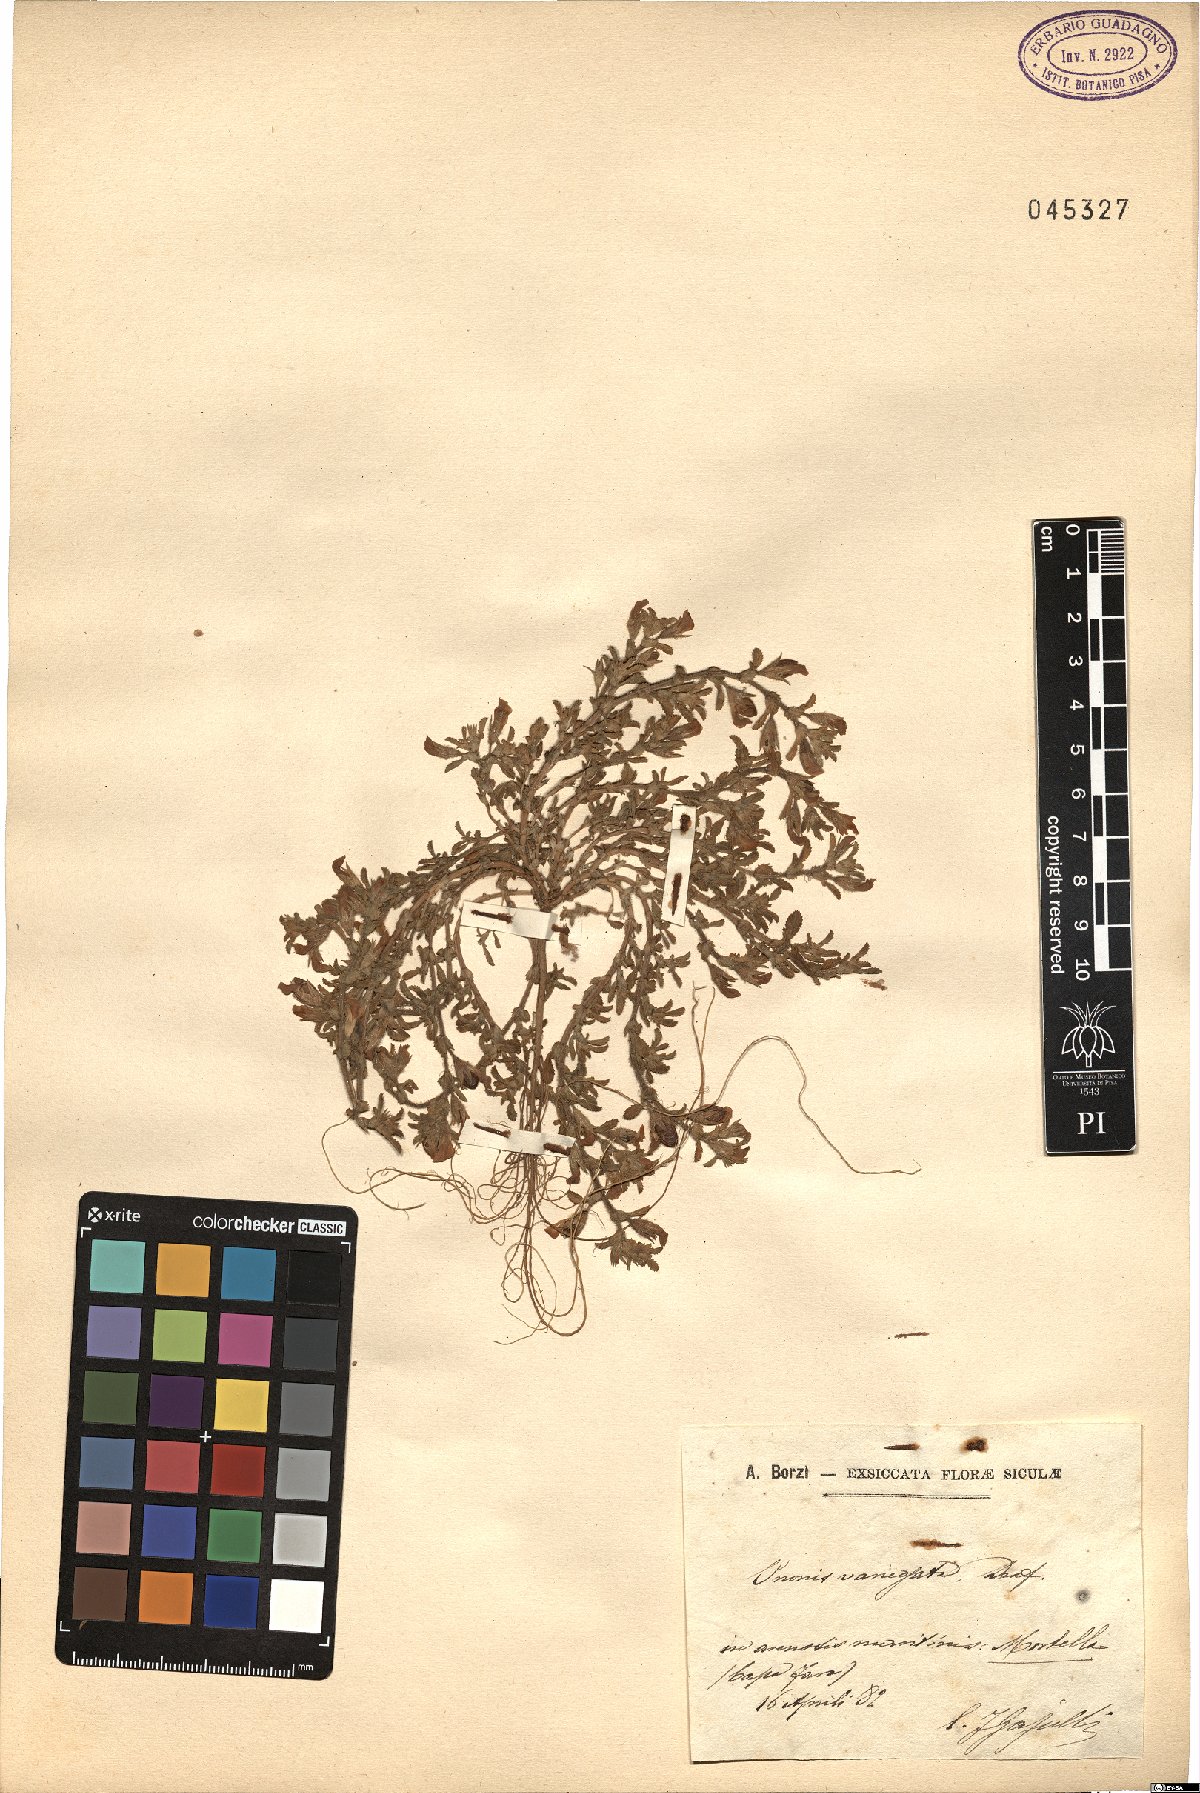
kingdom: Plantae
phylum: Tracheophyta
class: Magnoliopsida
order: Fabales
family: Fabaceae
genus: Ononis
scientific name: Ononis variegata
